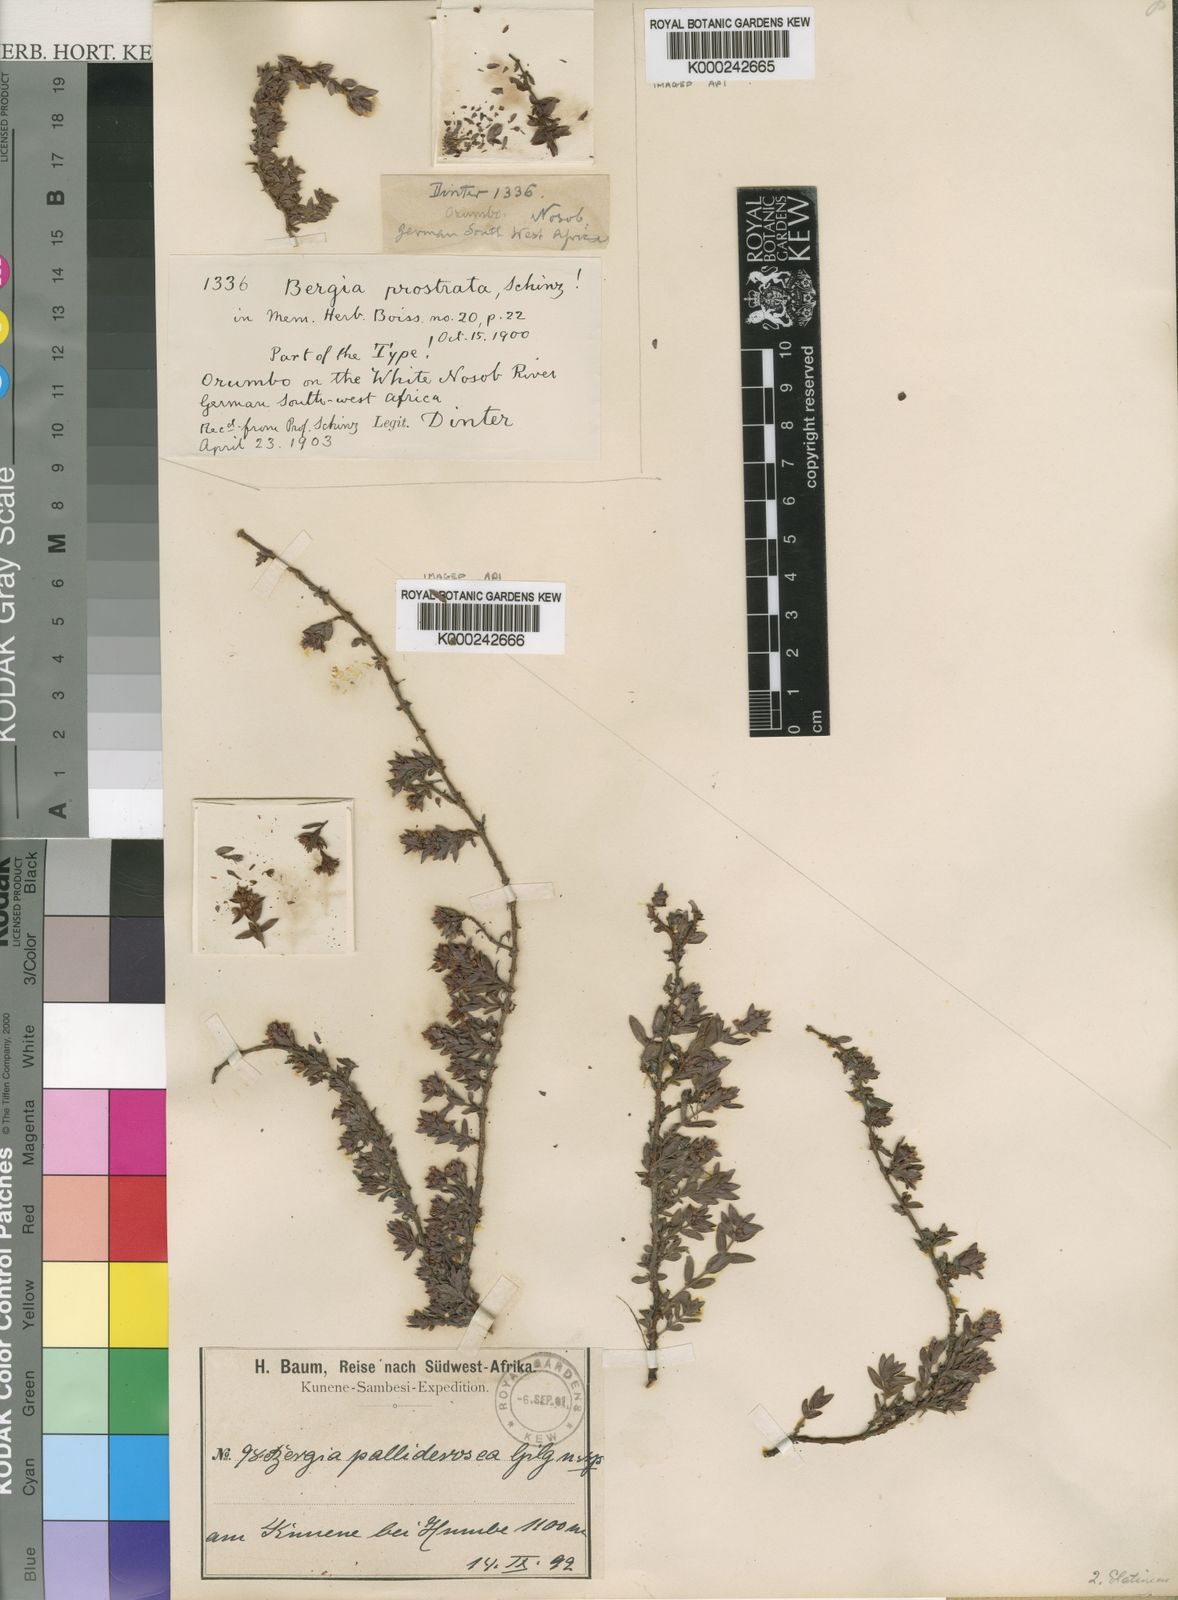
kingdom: Plantae
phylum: Tracheophyta
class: Magnoliopsida
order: Malpighiales
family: Elatinaceae
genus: Bergia
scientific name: Bergia pentheriana
